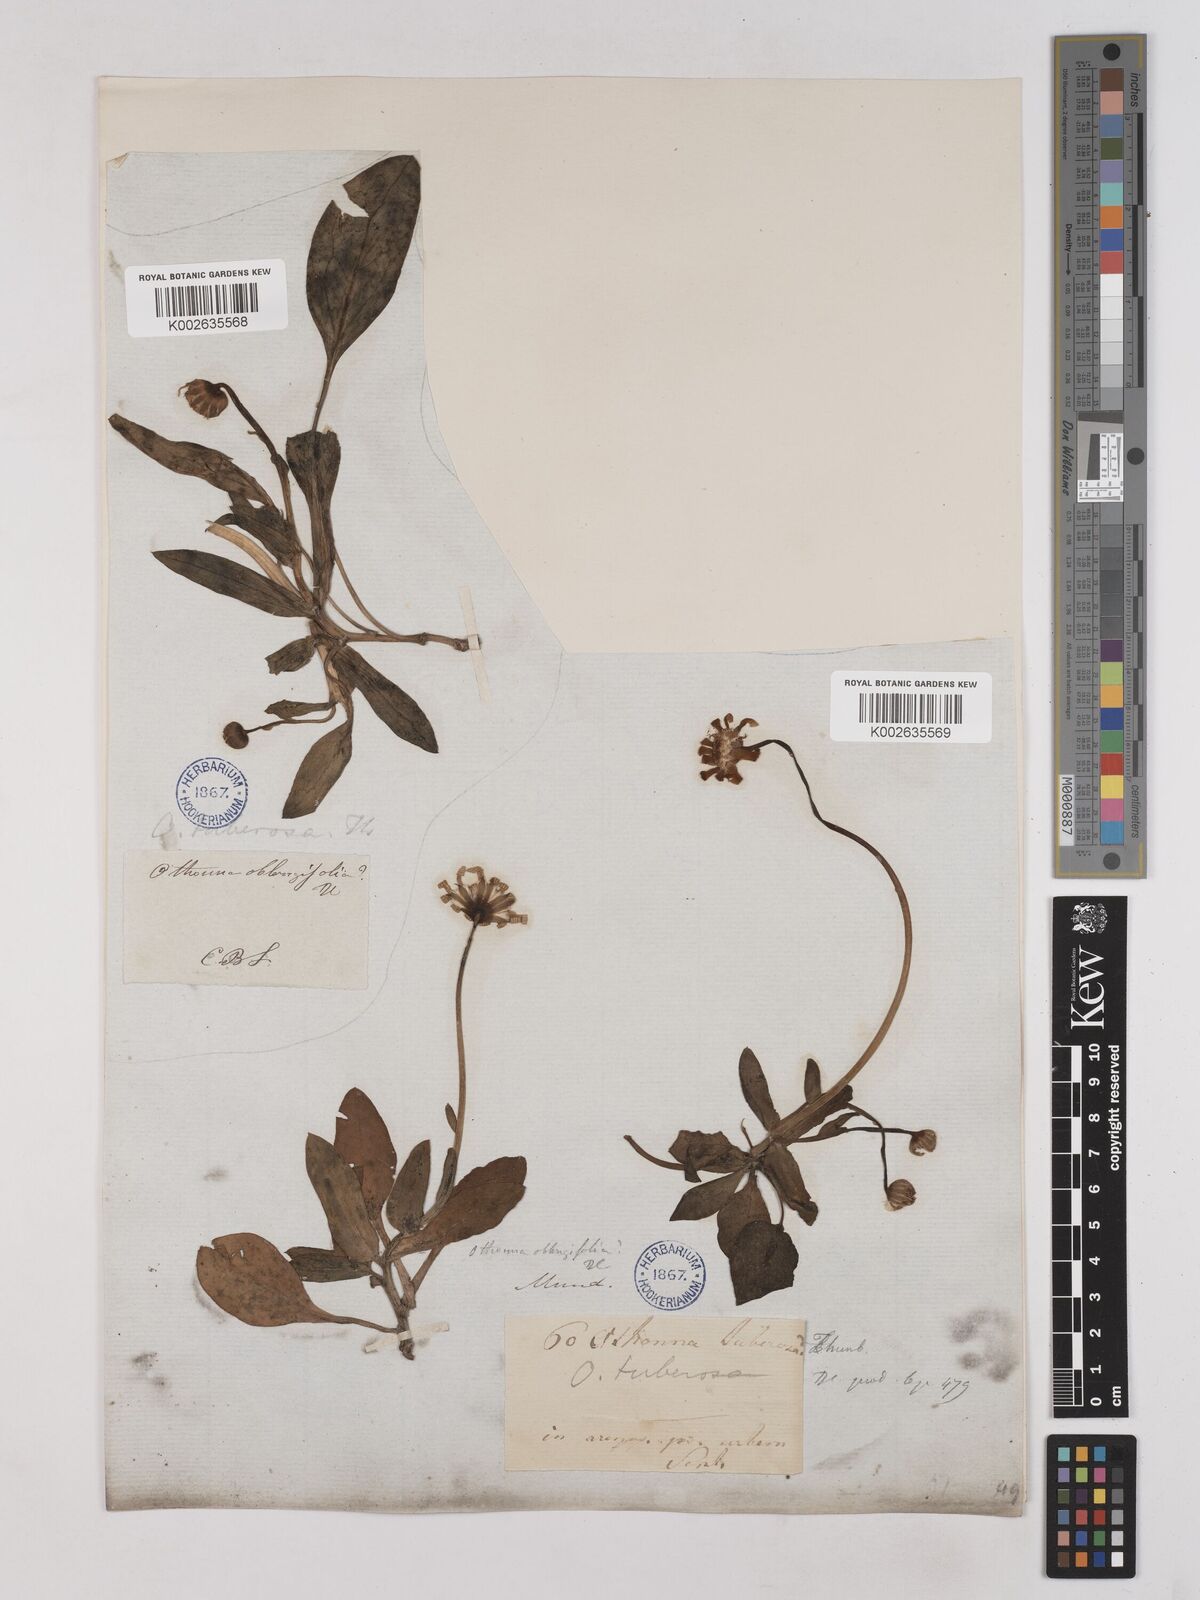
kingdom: Plantae
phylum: Tracheophyta
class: Magnoliopsida
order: Asterales
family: Asteraceae
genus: Othonna
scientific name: Othonna bulbosa
